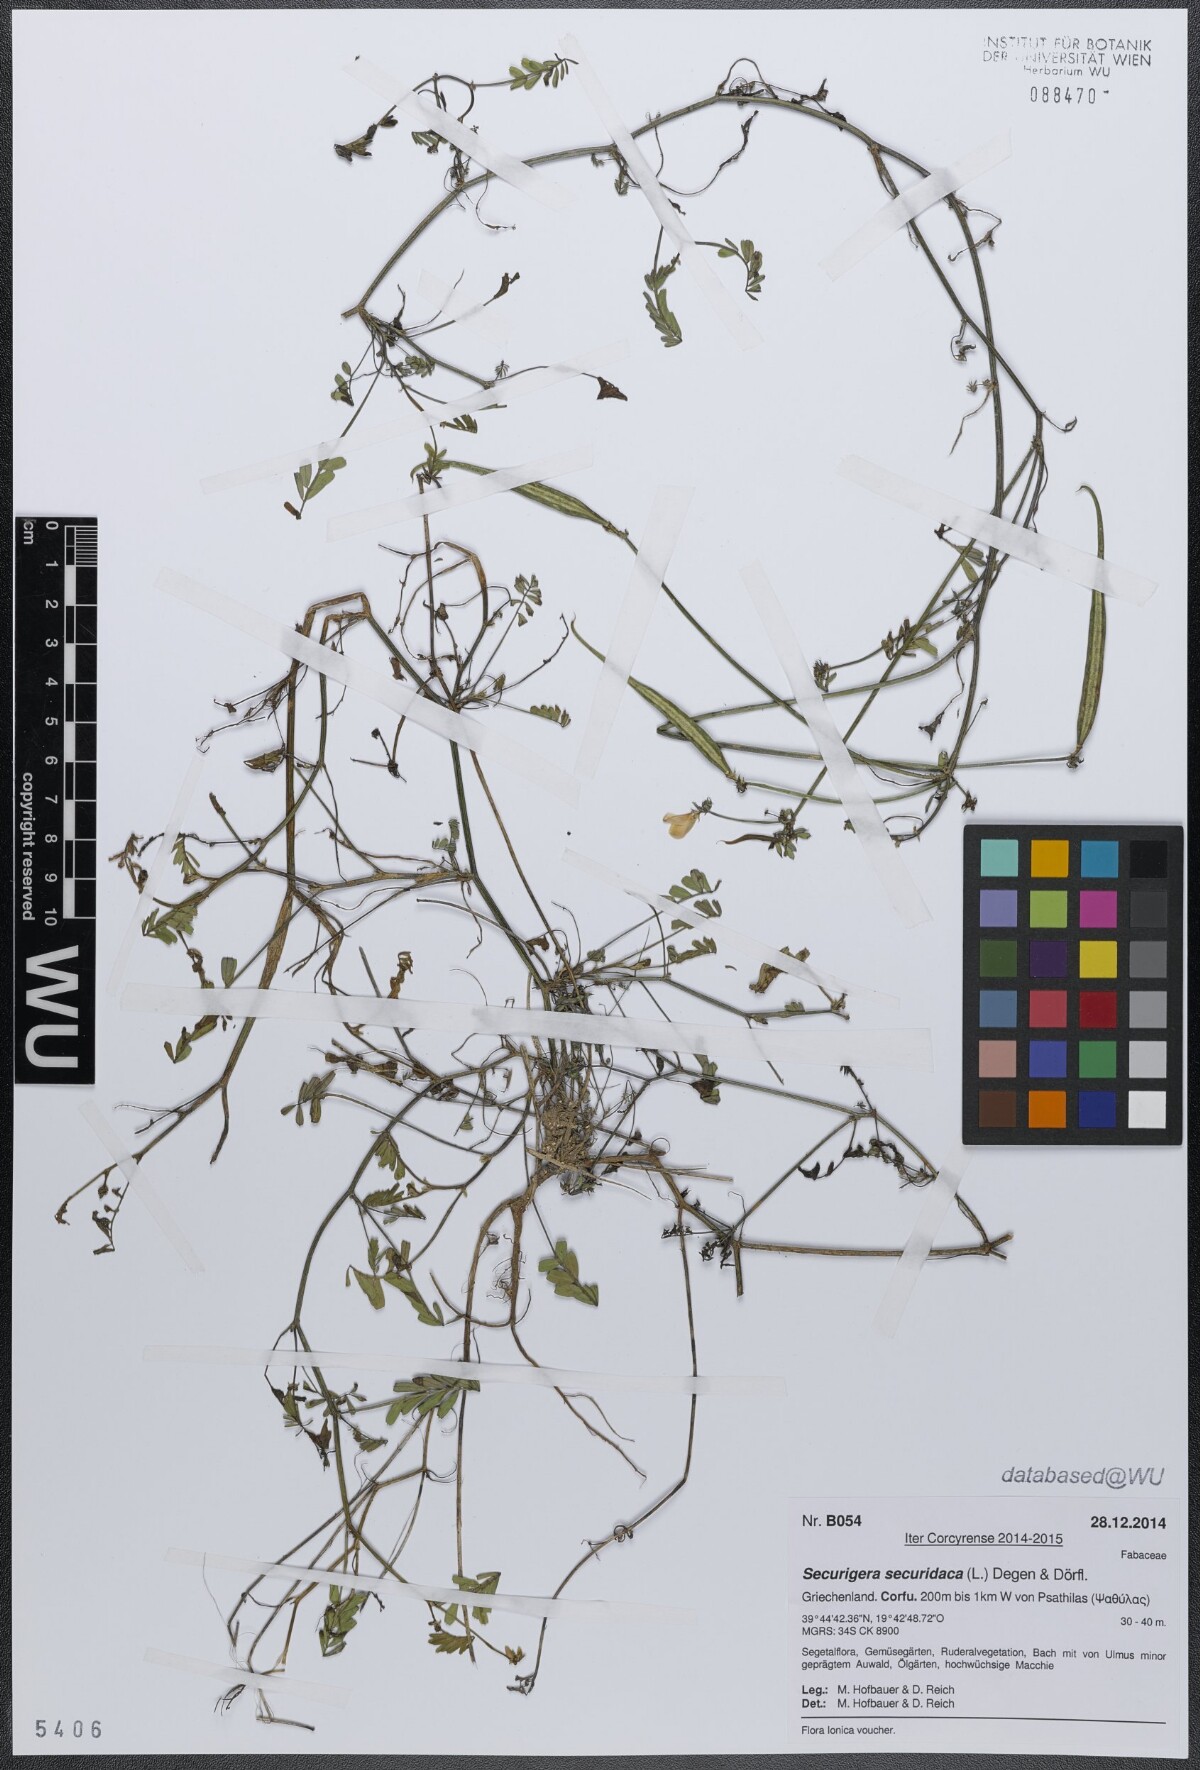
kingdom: Plantae
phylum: Tracheophyta
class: Magnoliopsida
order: Fabales
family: Fabaceae
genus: Coronilla
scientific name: Coronilla securidaca
